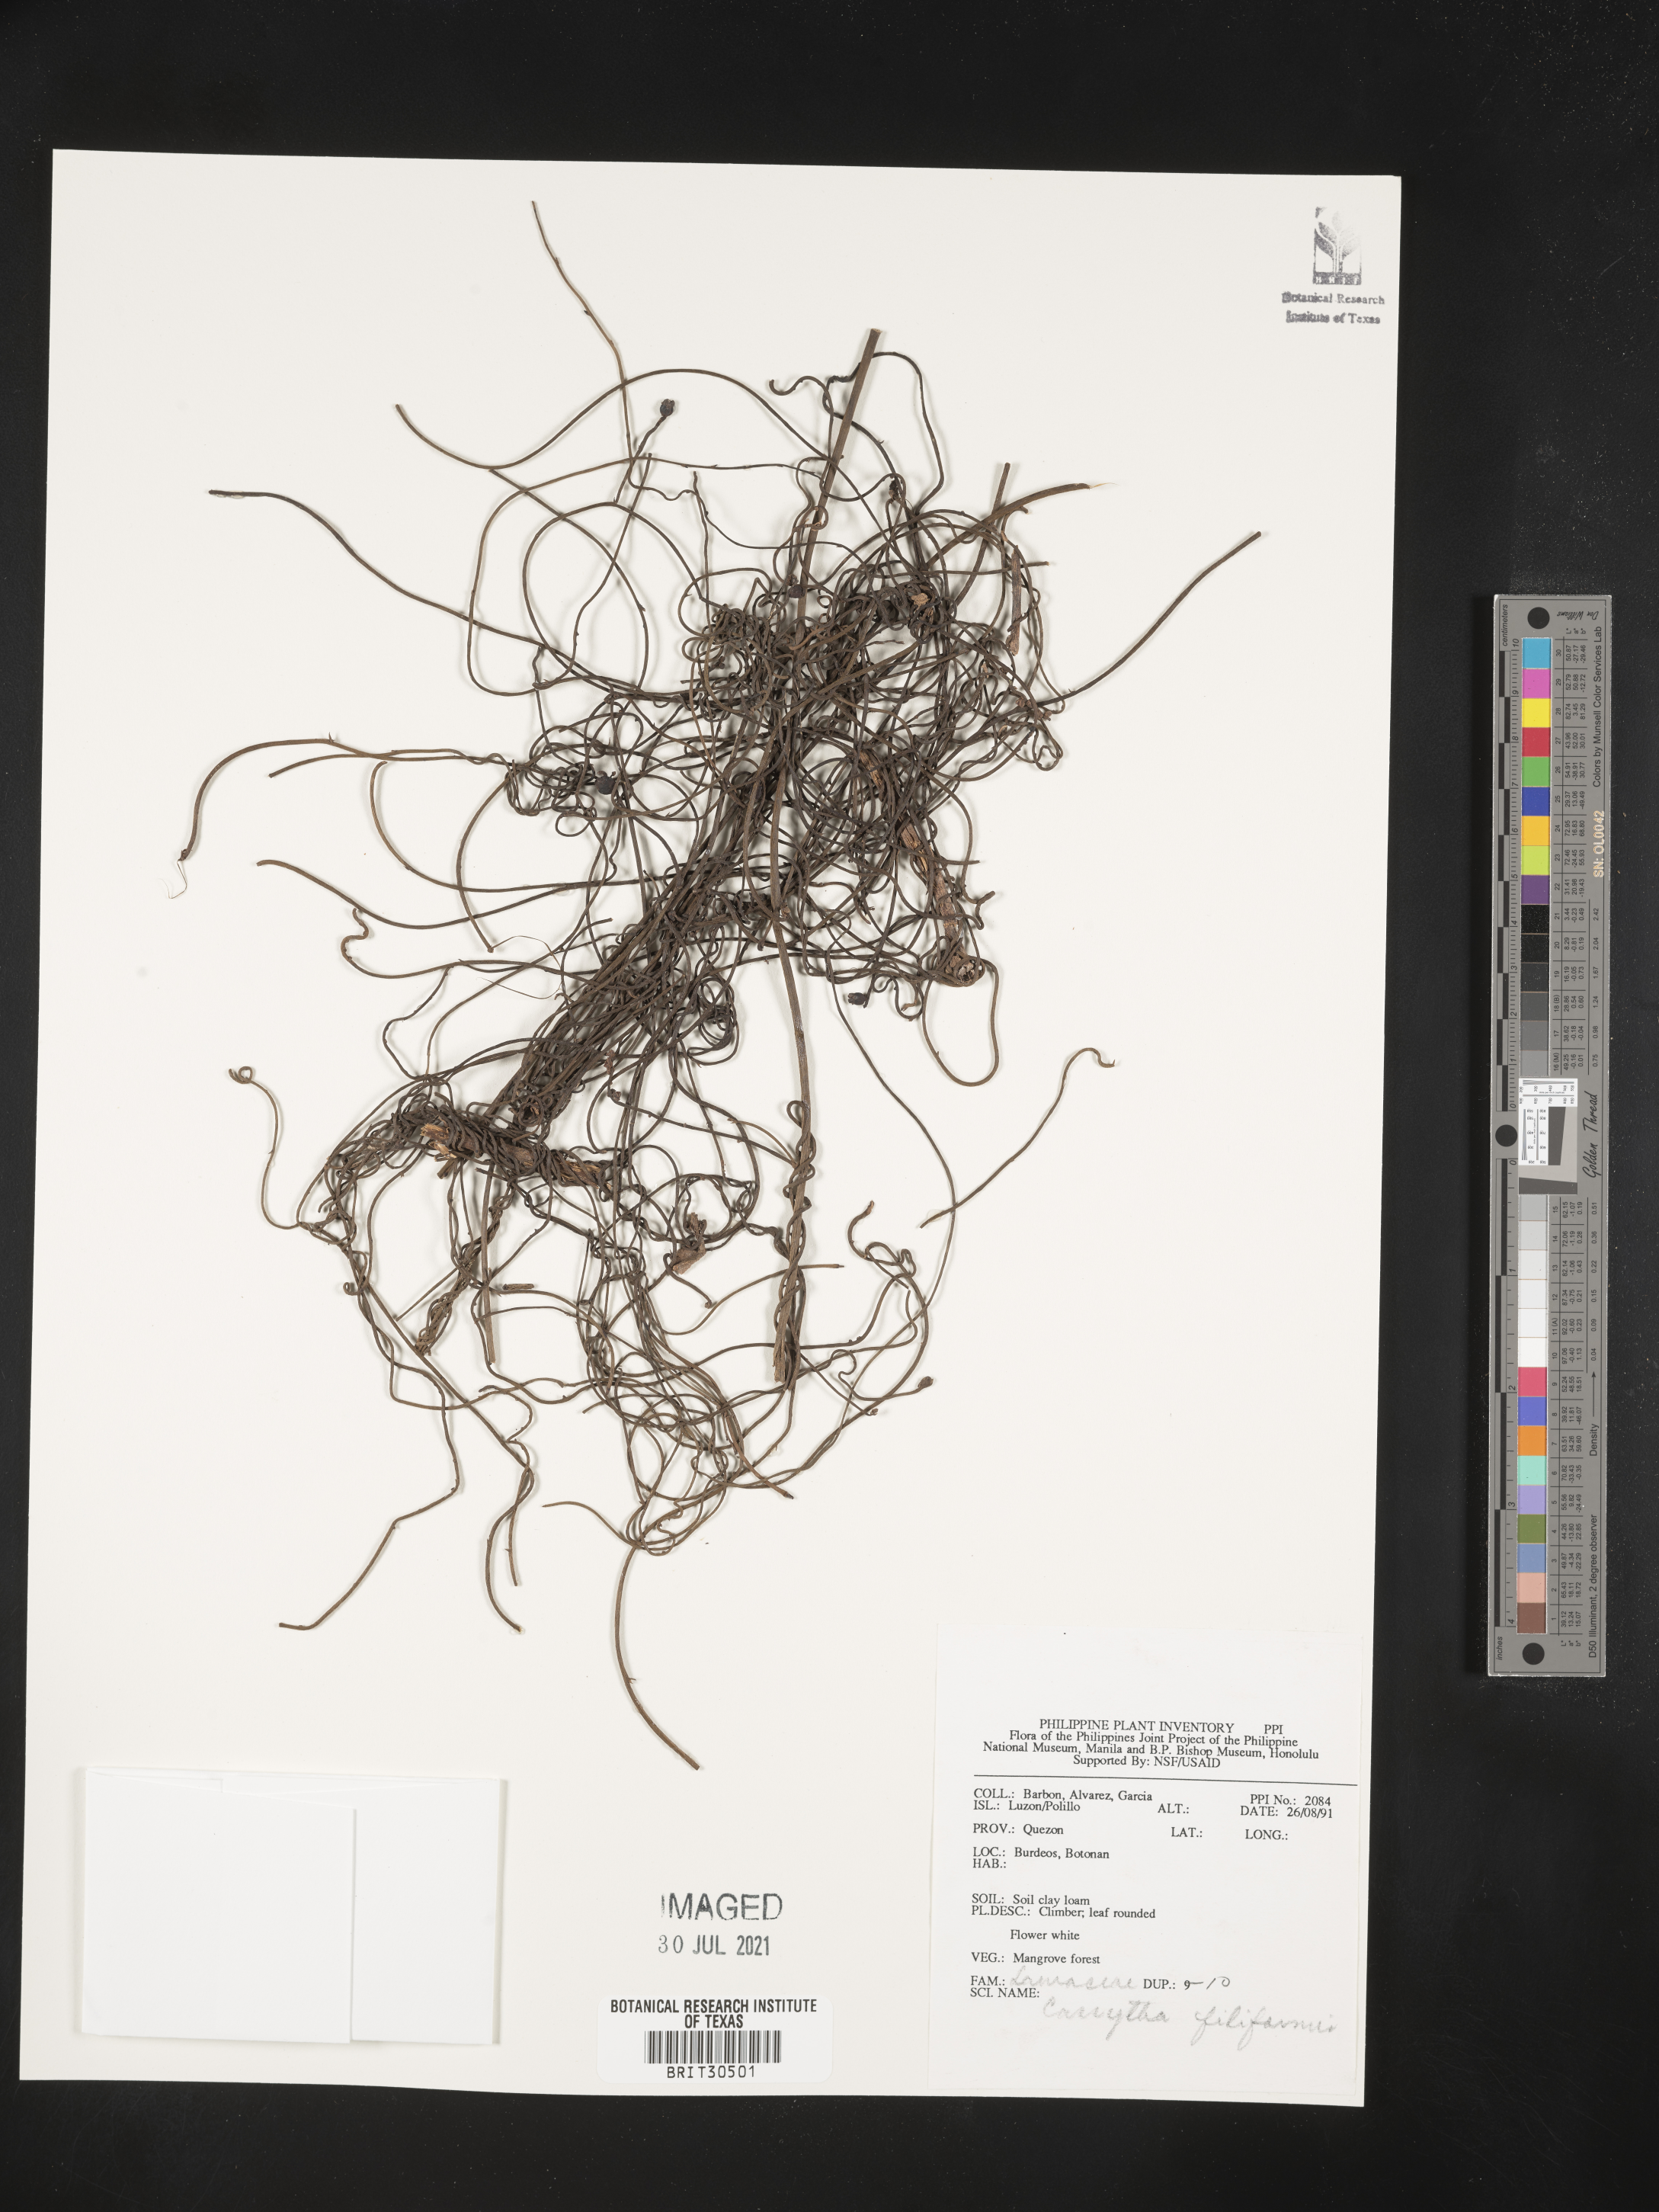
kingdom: Plantae
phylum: Tracheophyta
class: Magnoliopsida
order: Laurales
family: Lauraceae
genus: Cassytha
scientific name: Cassytha filiformis
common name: Dodder-laurel
